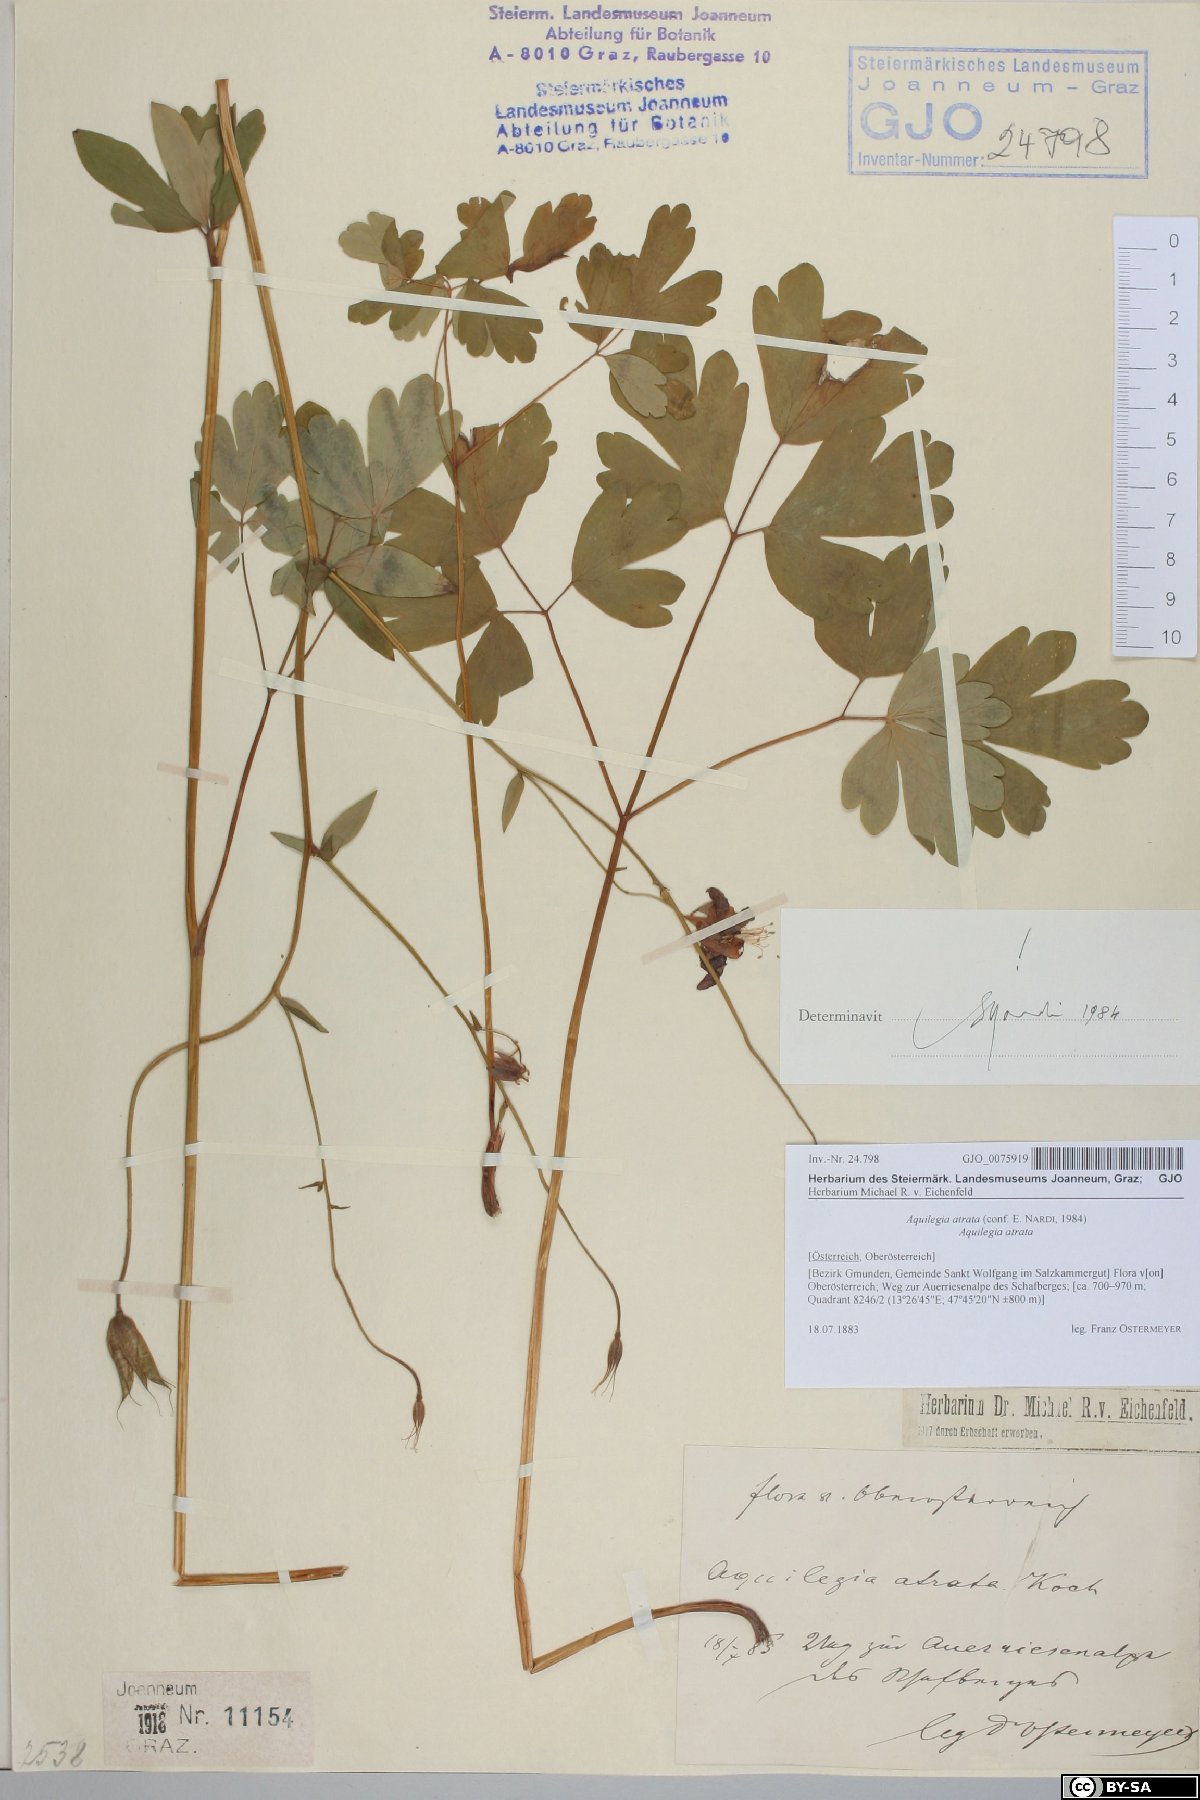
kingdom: Plantae
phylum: Tracheophyta
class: Magnoliopsida
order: Ranunculales
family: Ranunculaceae
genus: Aquilegia
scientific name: Aquilegia atrata
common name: Dark columbine
